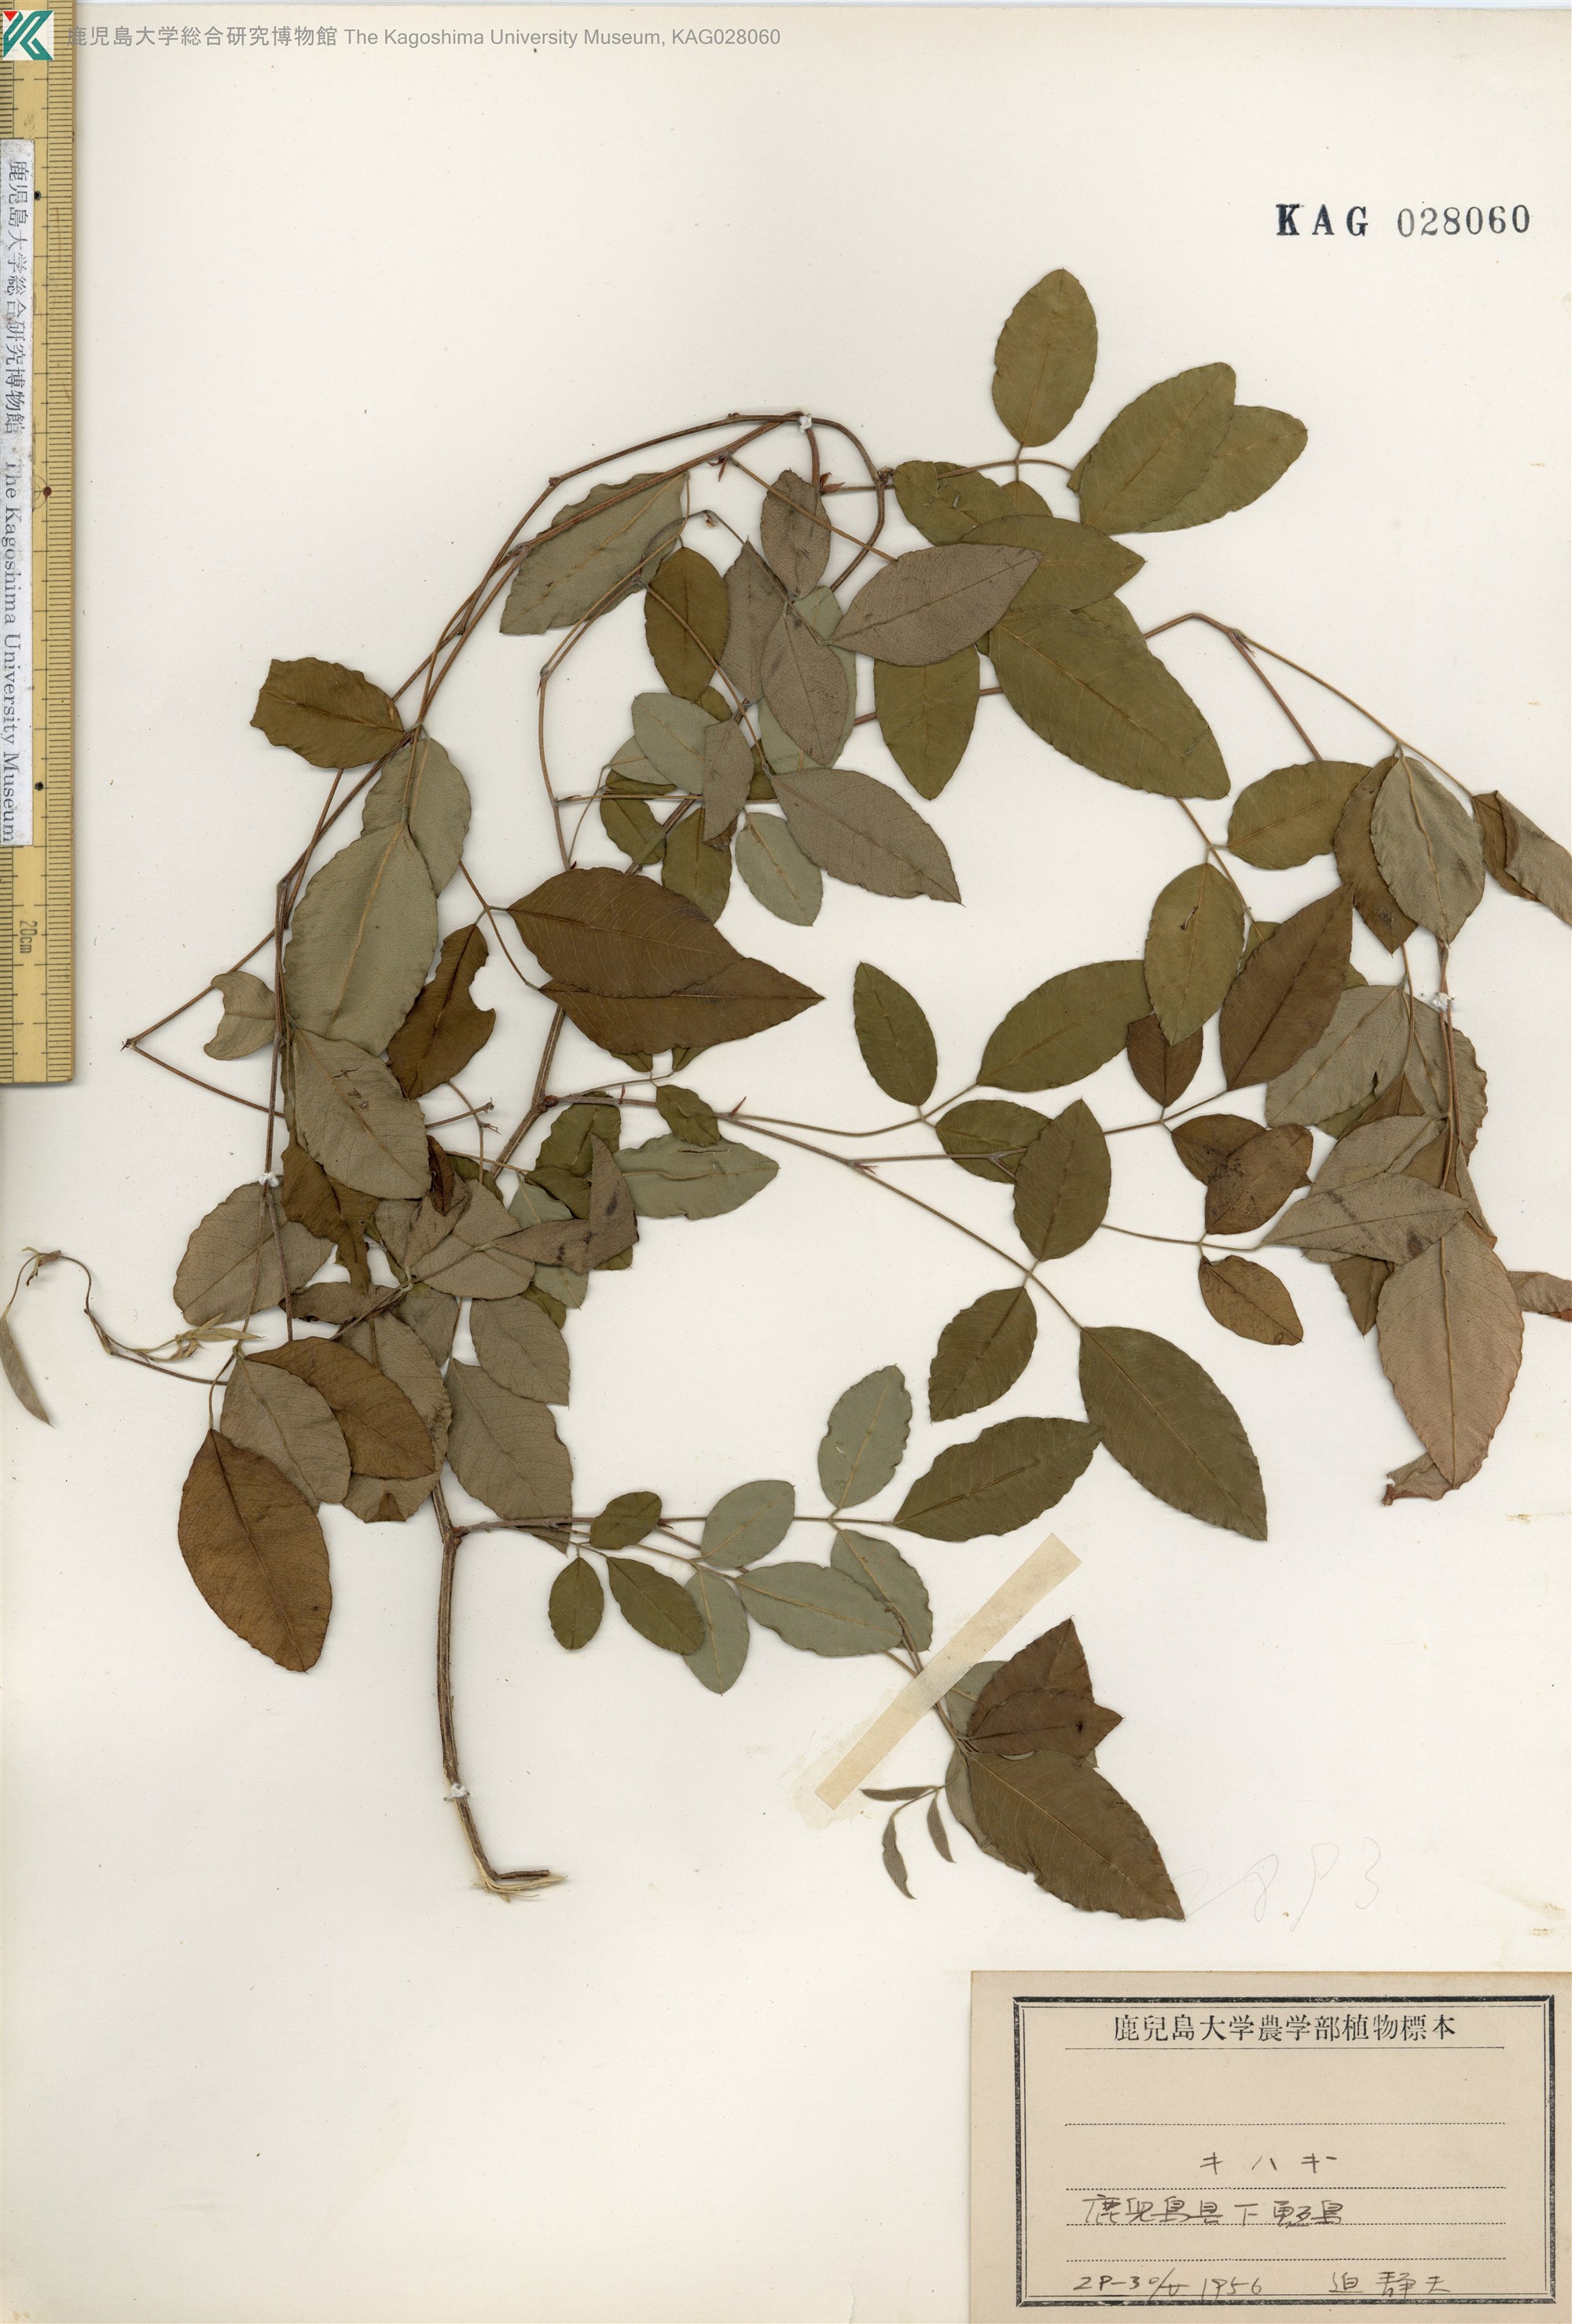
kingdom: Plantae
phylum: Tracheophyta
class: Magnoliopsida
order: Fabales
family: Fabaceae
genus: Lespedeza
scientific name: Lespedeza buergeri
